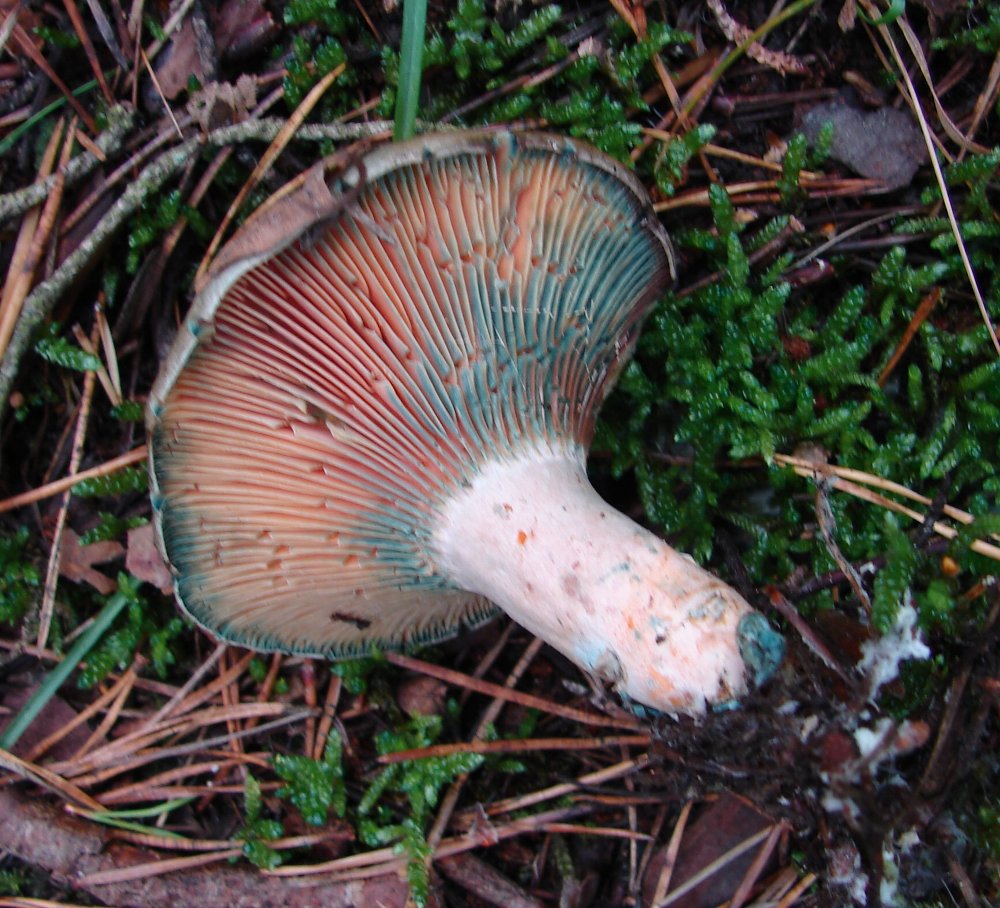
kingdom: Fungi
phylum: Basidiomycota
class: Agaricomycetes
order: Russulales
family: Russulaceae
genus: Lactarius
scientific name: Lactarius quieticolor
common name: tvefarvet mælkehat
